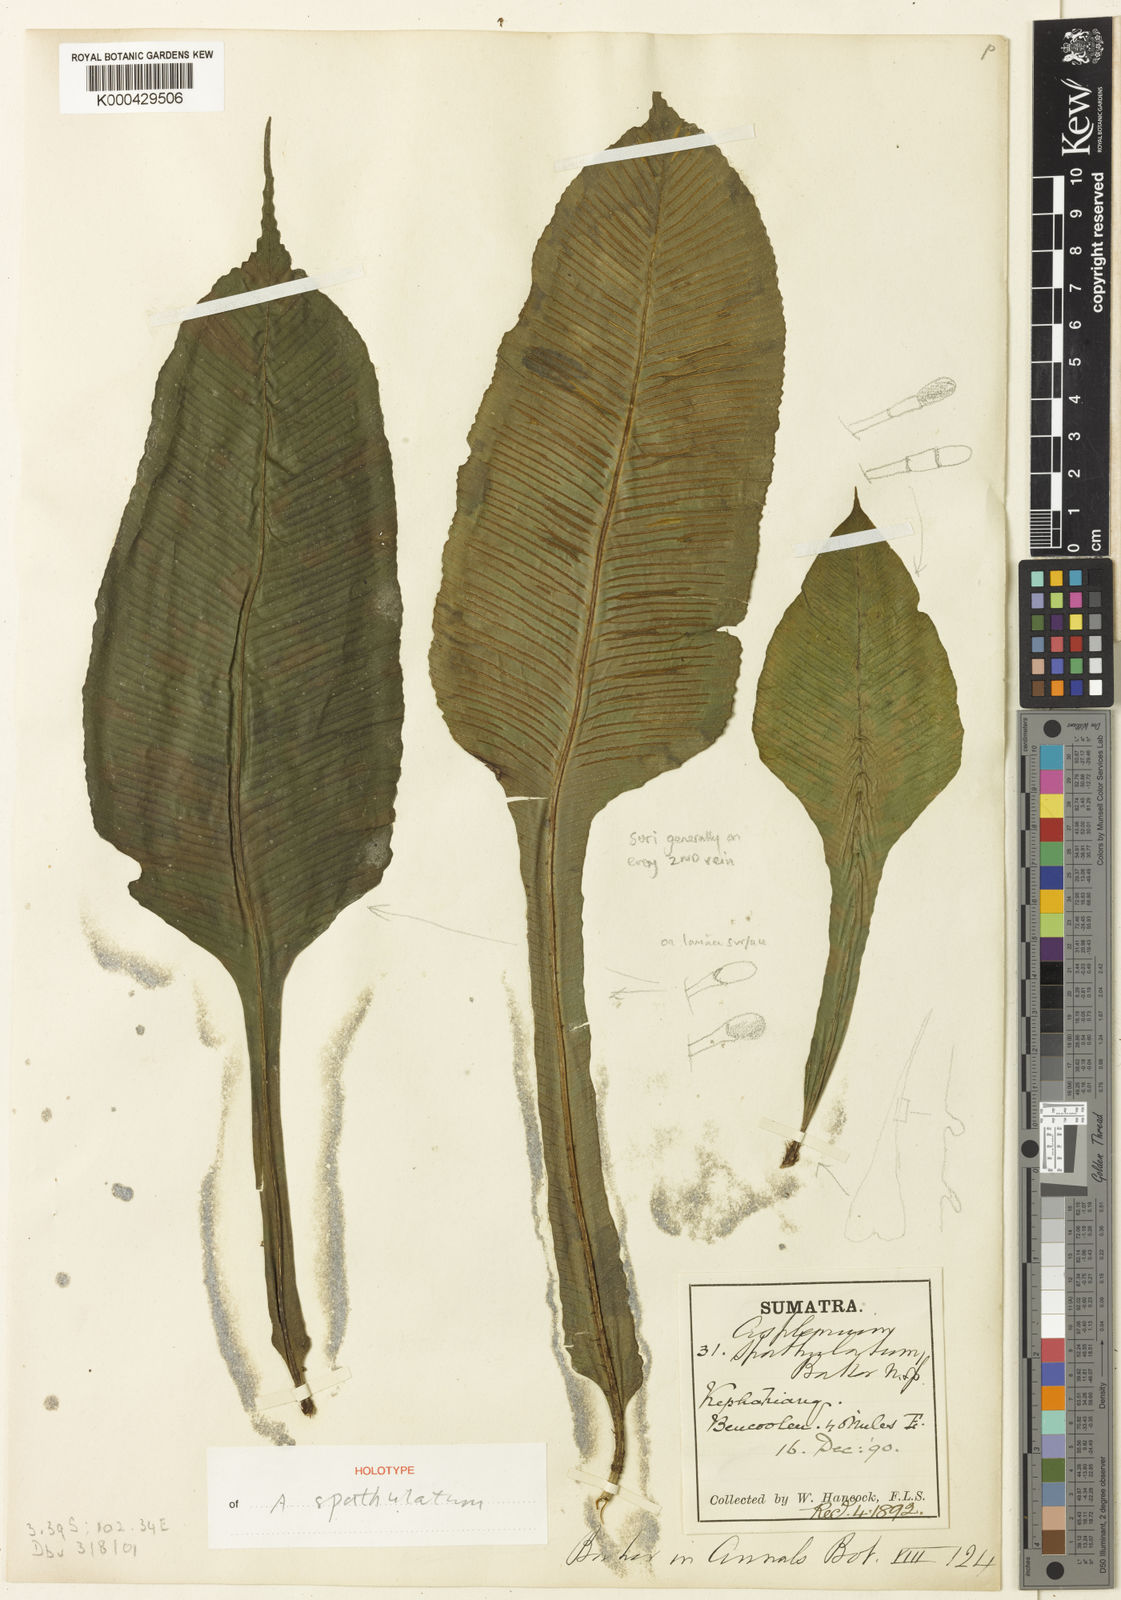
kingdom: Plantae
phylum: Tracheophyta
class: Polypodiopsida
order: Polypodiales
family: Aspleniaceae
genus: Asplenium
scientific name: Asplenium batuense
